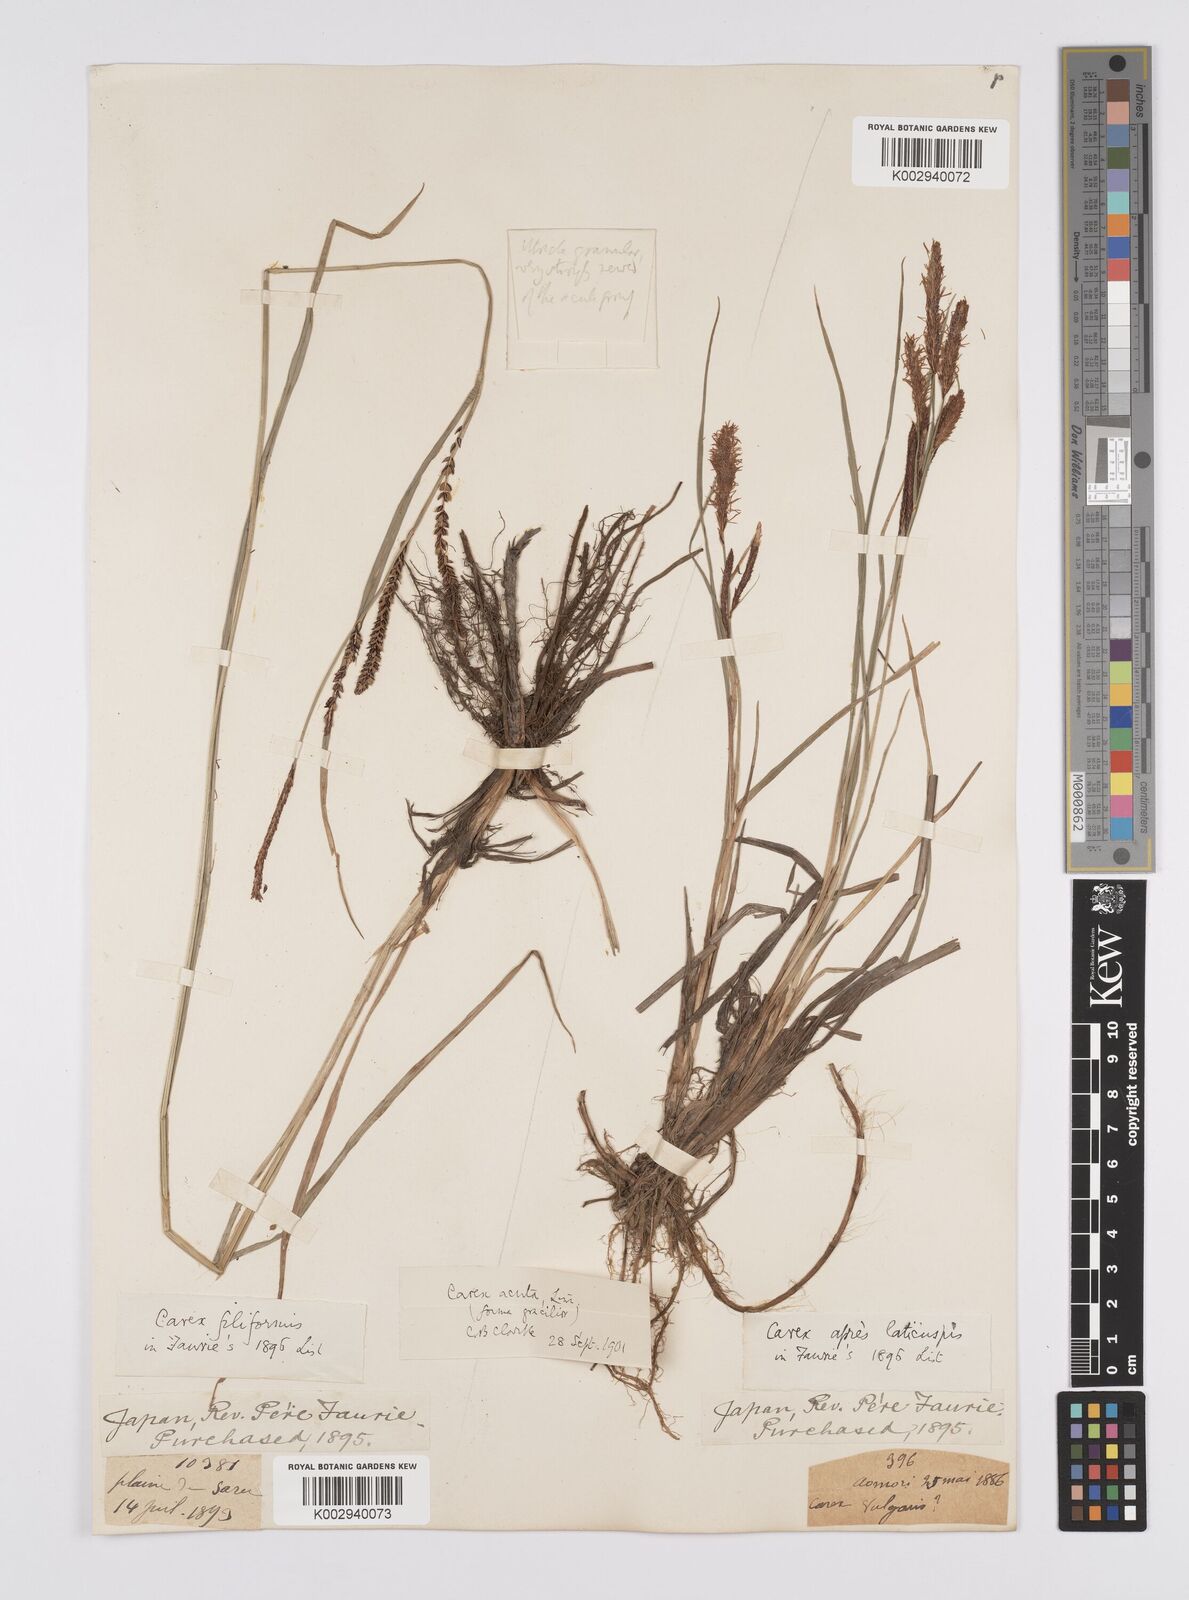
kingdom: Plantae
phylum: Tracheophyta
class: Liliopsida
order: Poales
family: Cyperaceae
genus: Carex
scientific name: Carex thunbergii
